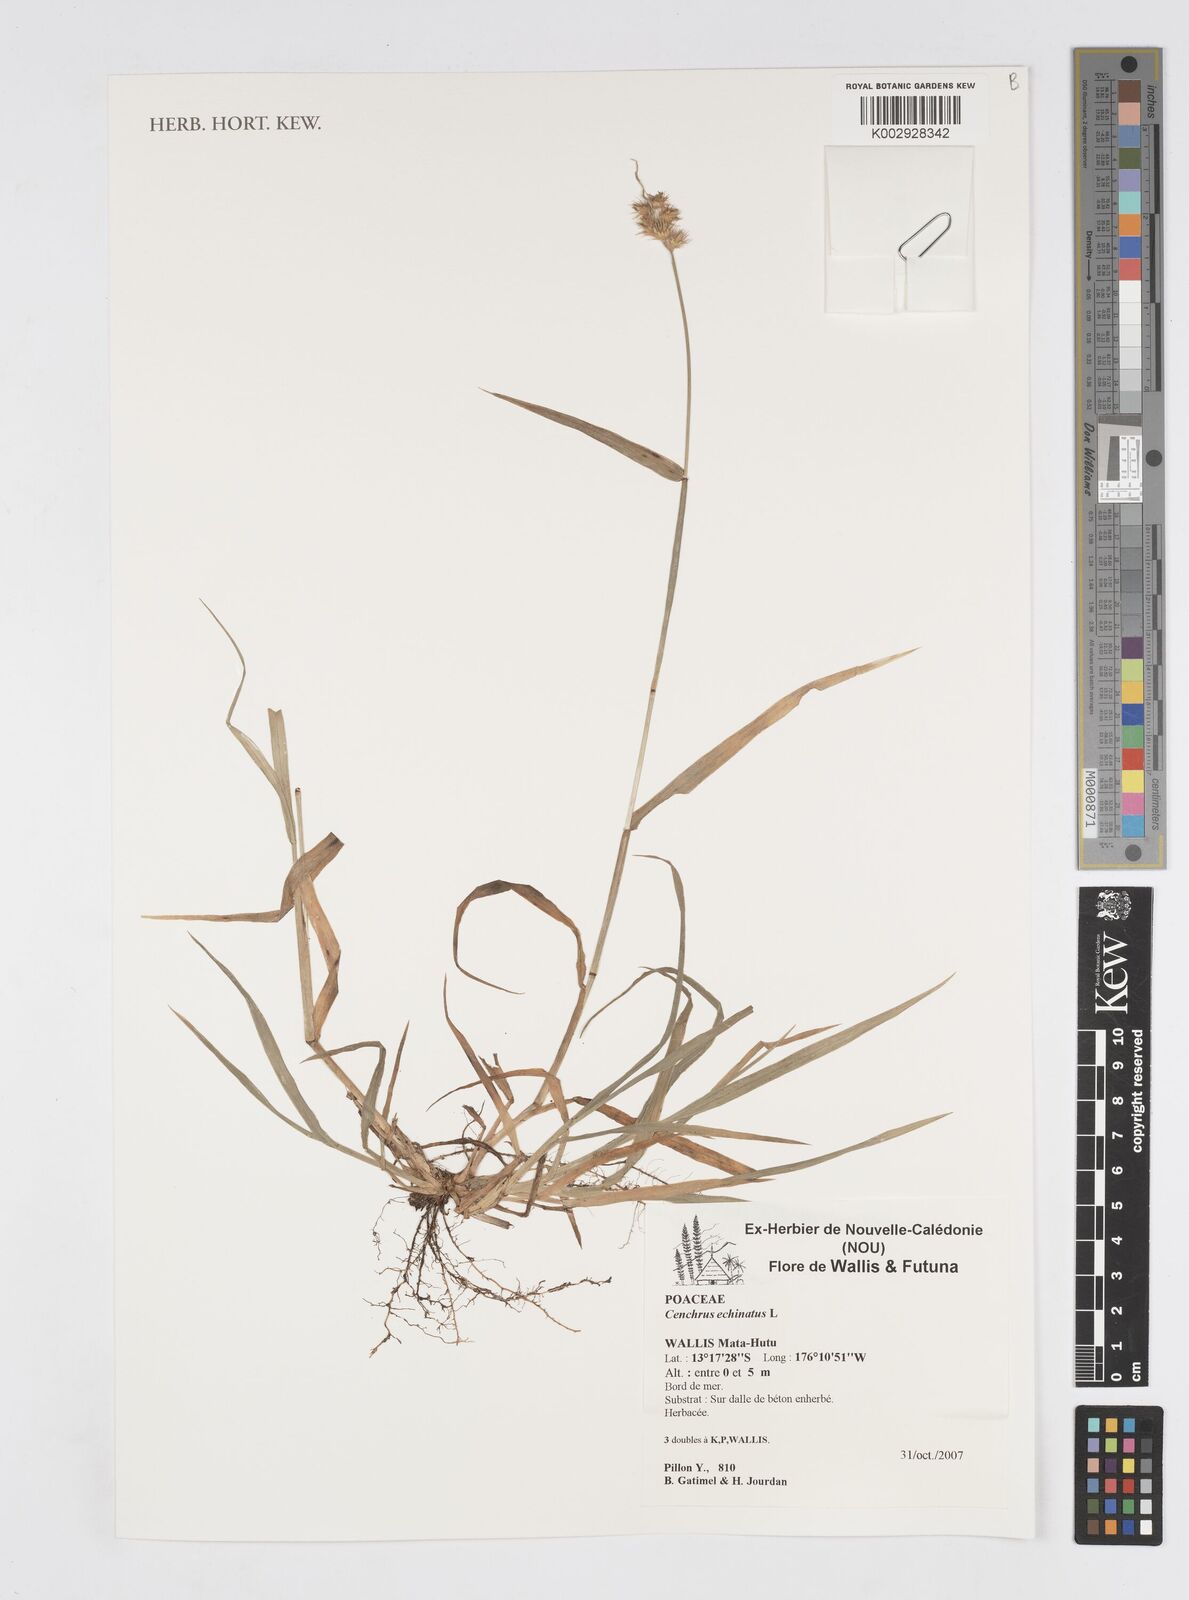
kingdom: Plantae
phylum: Tracheophyta
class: Liliopsida
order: Poales
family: Poaceae
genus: Cenchrus
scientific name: Cenchrus echinatus
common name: Southern sandbur
